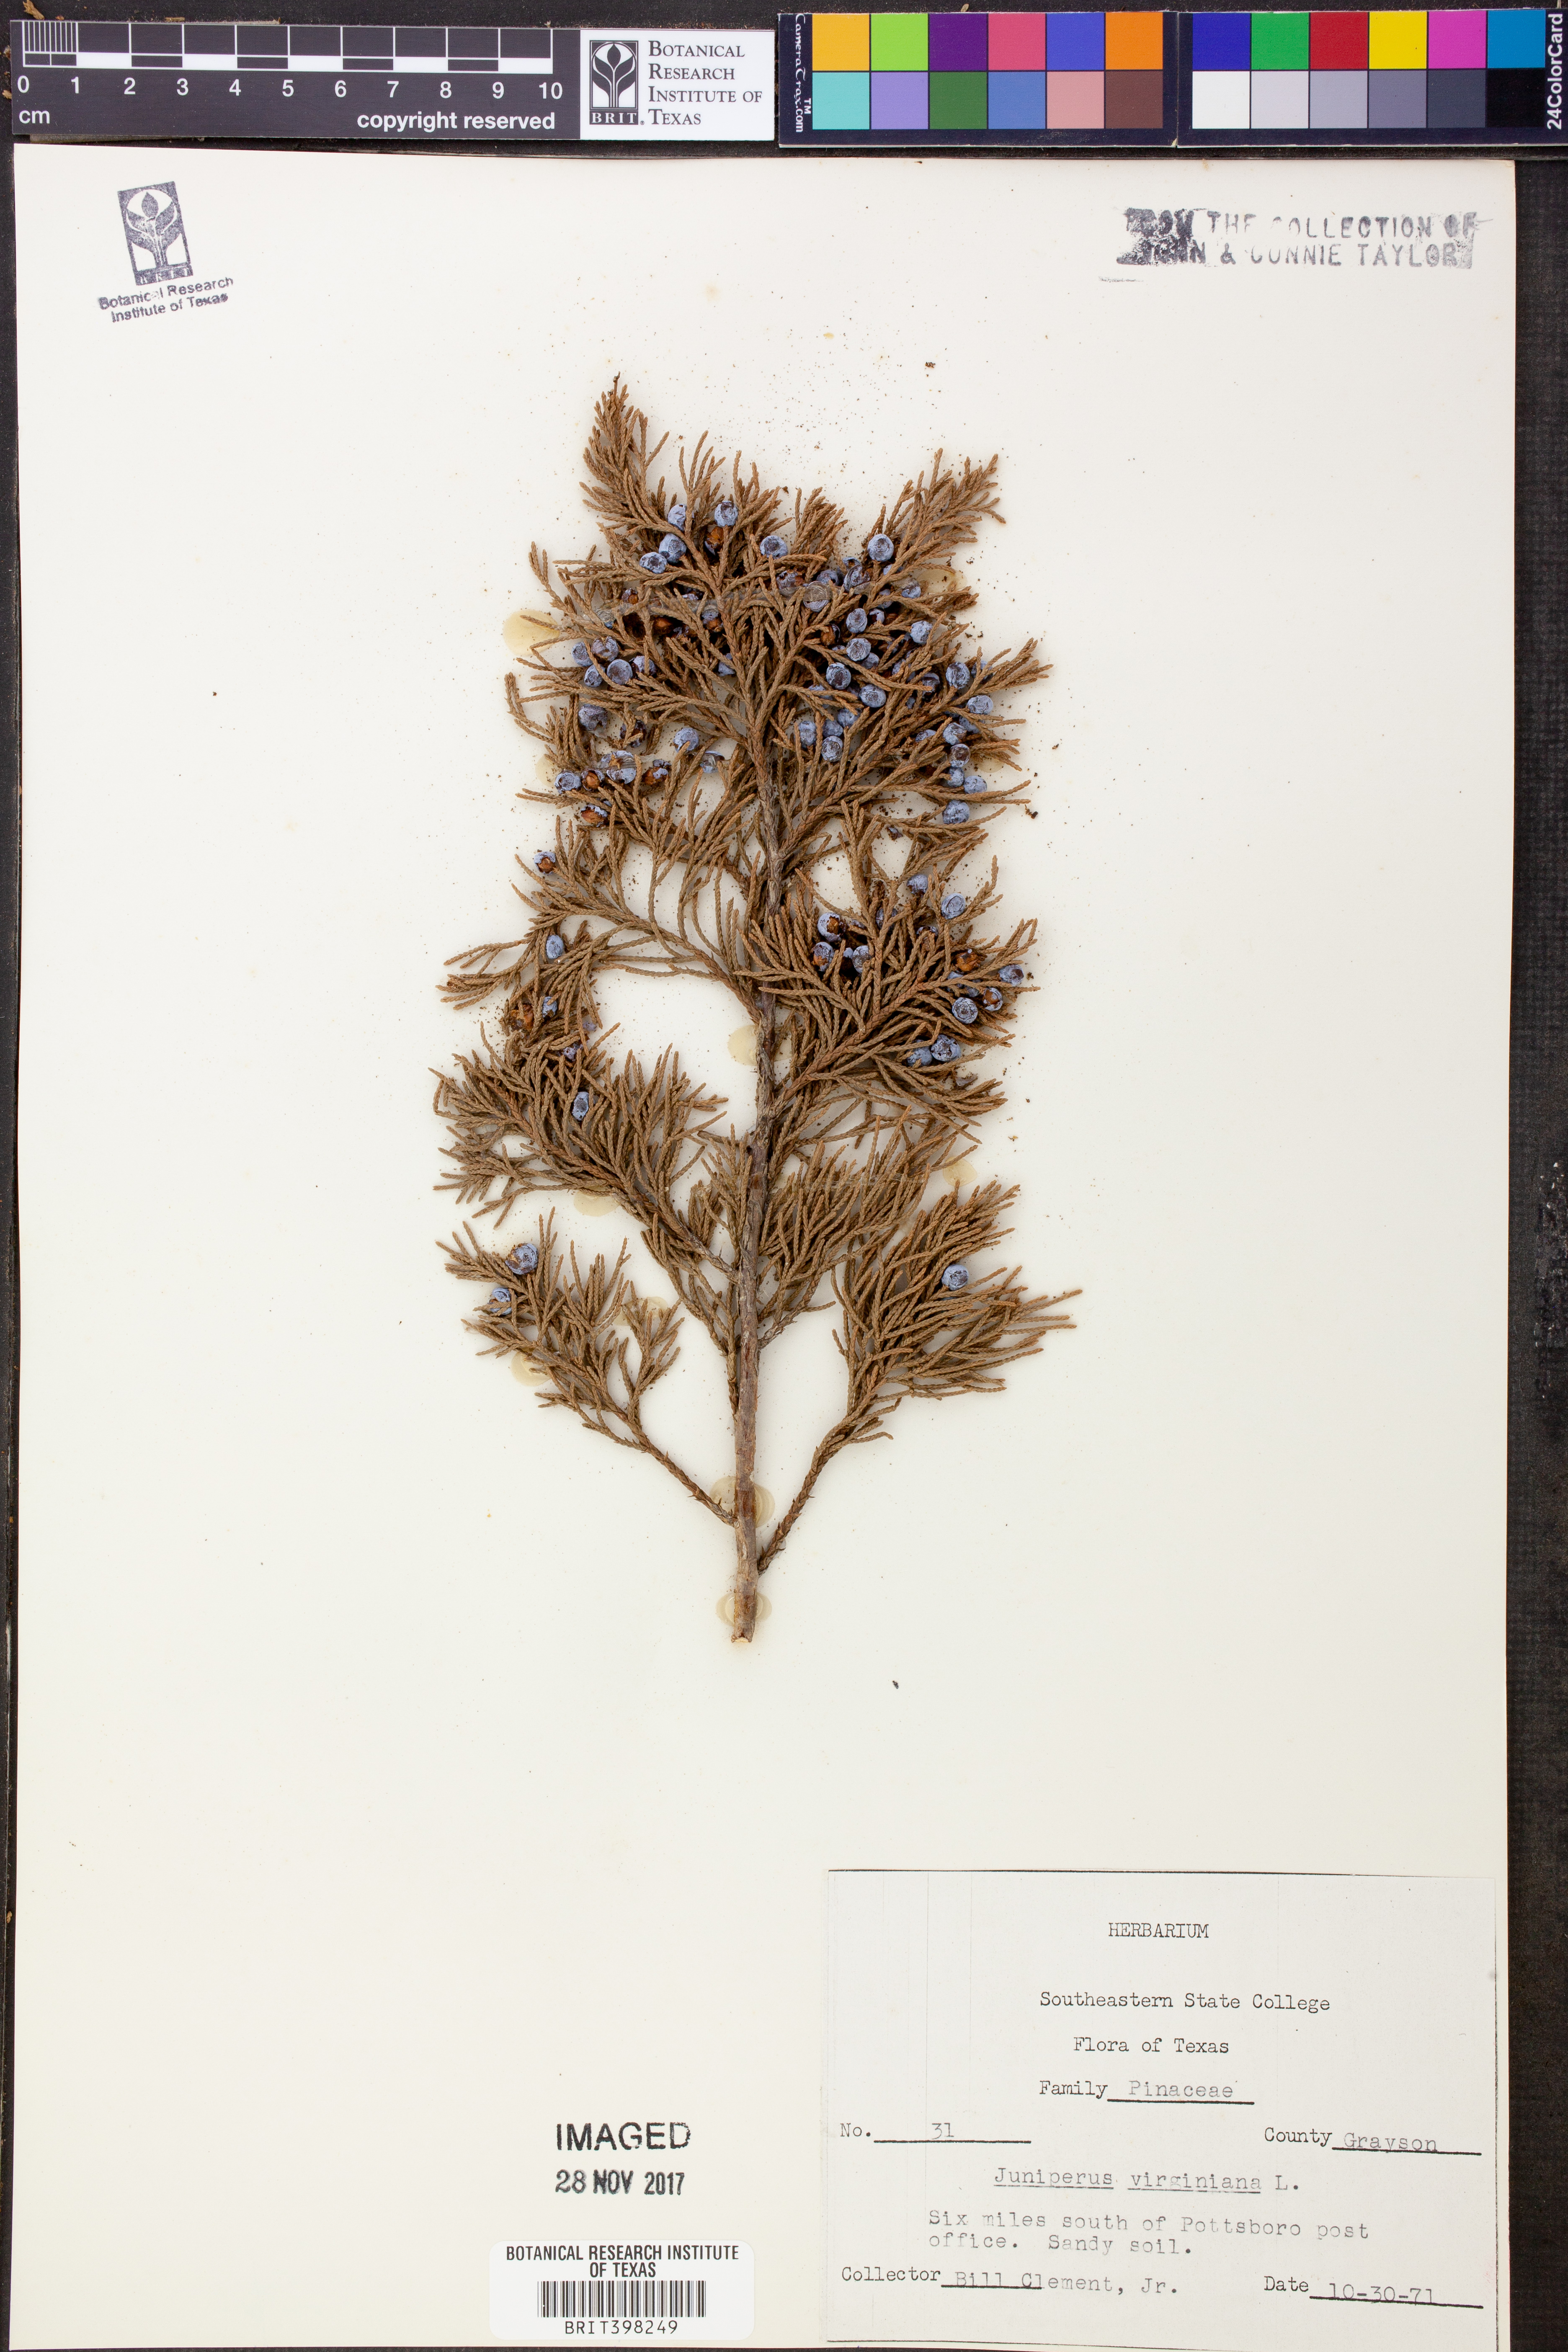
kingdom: Plantae
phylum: Tracheophyta
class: Pinopsida
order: Pinales
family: Cupressaceae
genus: Juniperus
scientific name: Juniperus virginiana
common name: Red juniper
